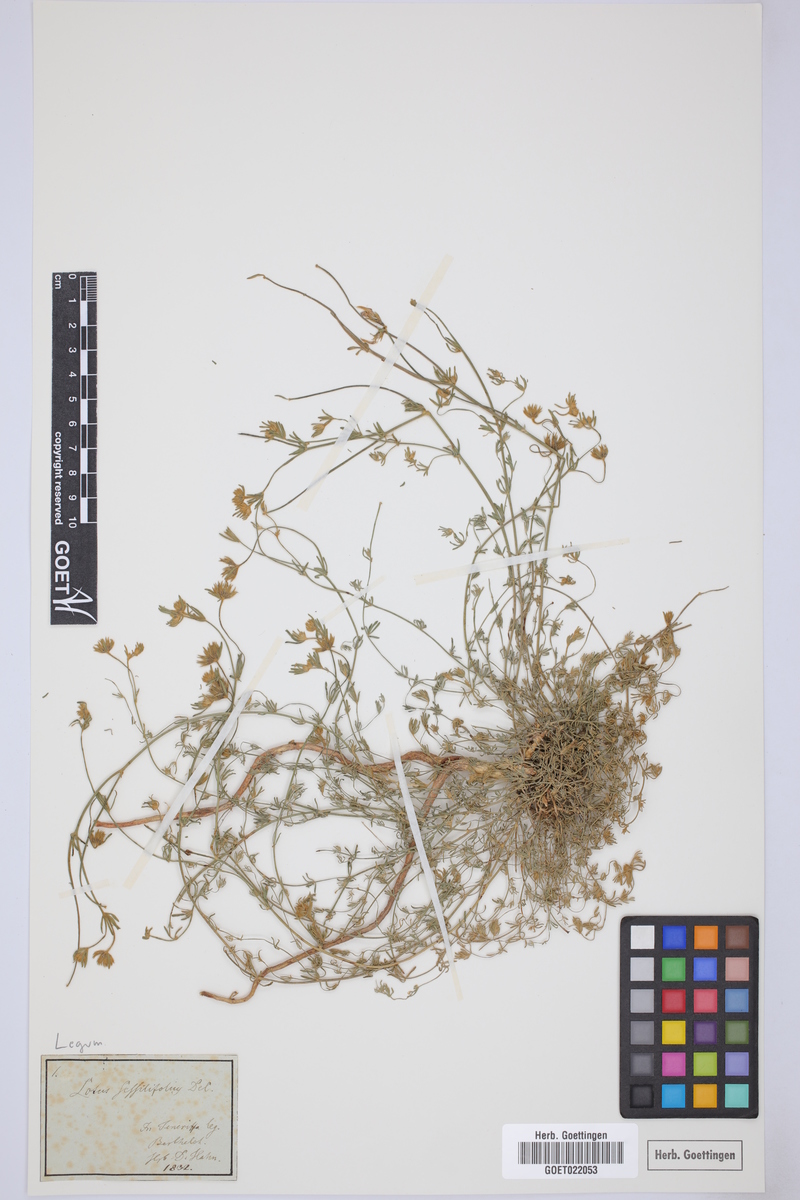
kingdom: Plantae
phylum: Tracheophyta
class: Magnoliopsida
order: Fabales
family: Fabaceae
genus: Lotus
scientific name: Lotus sessilifolius
